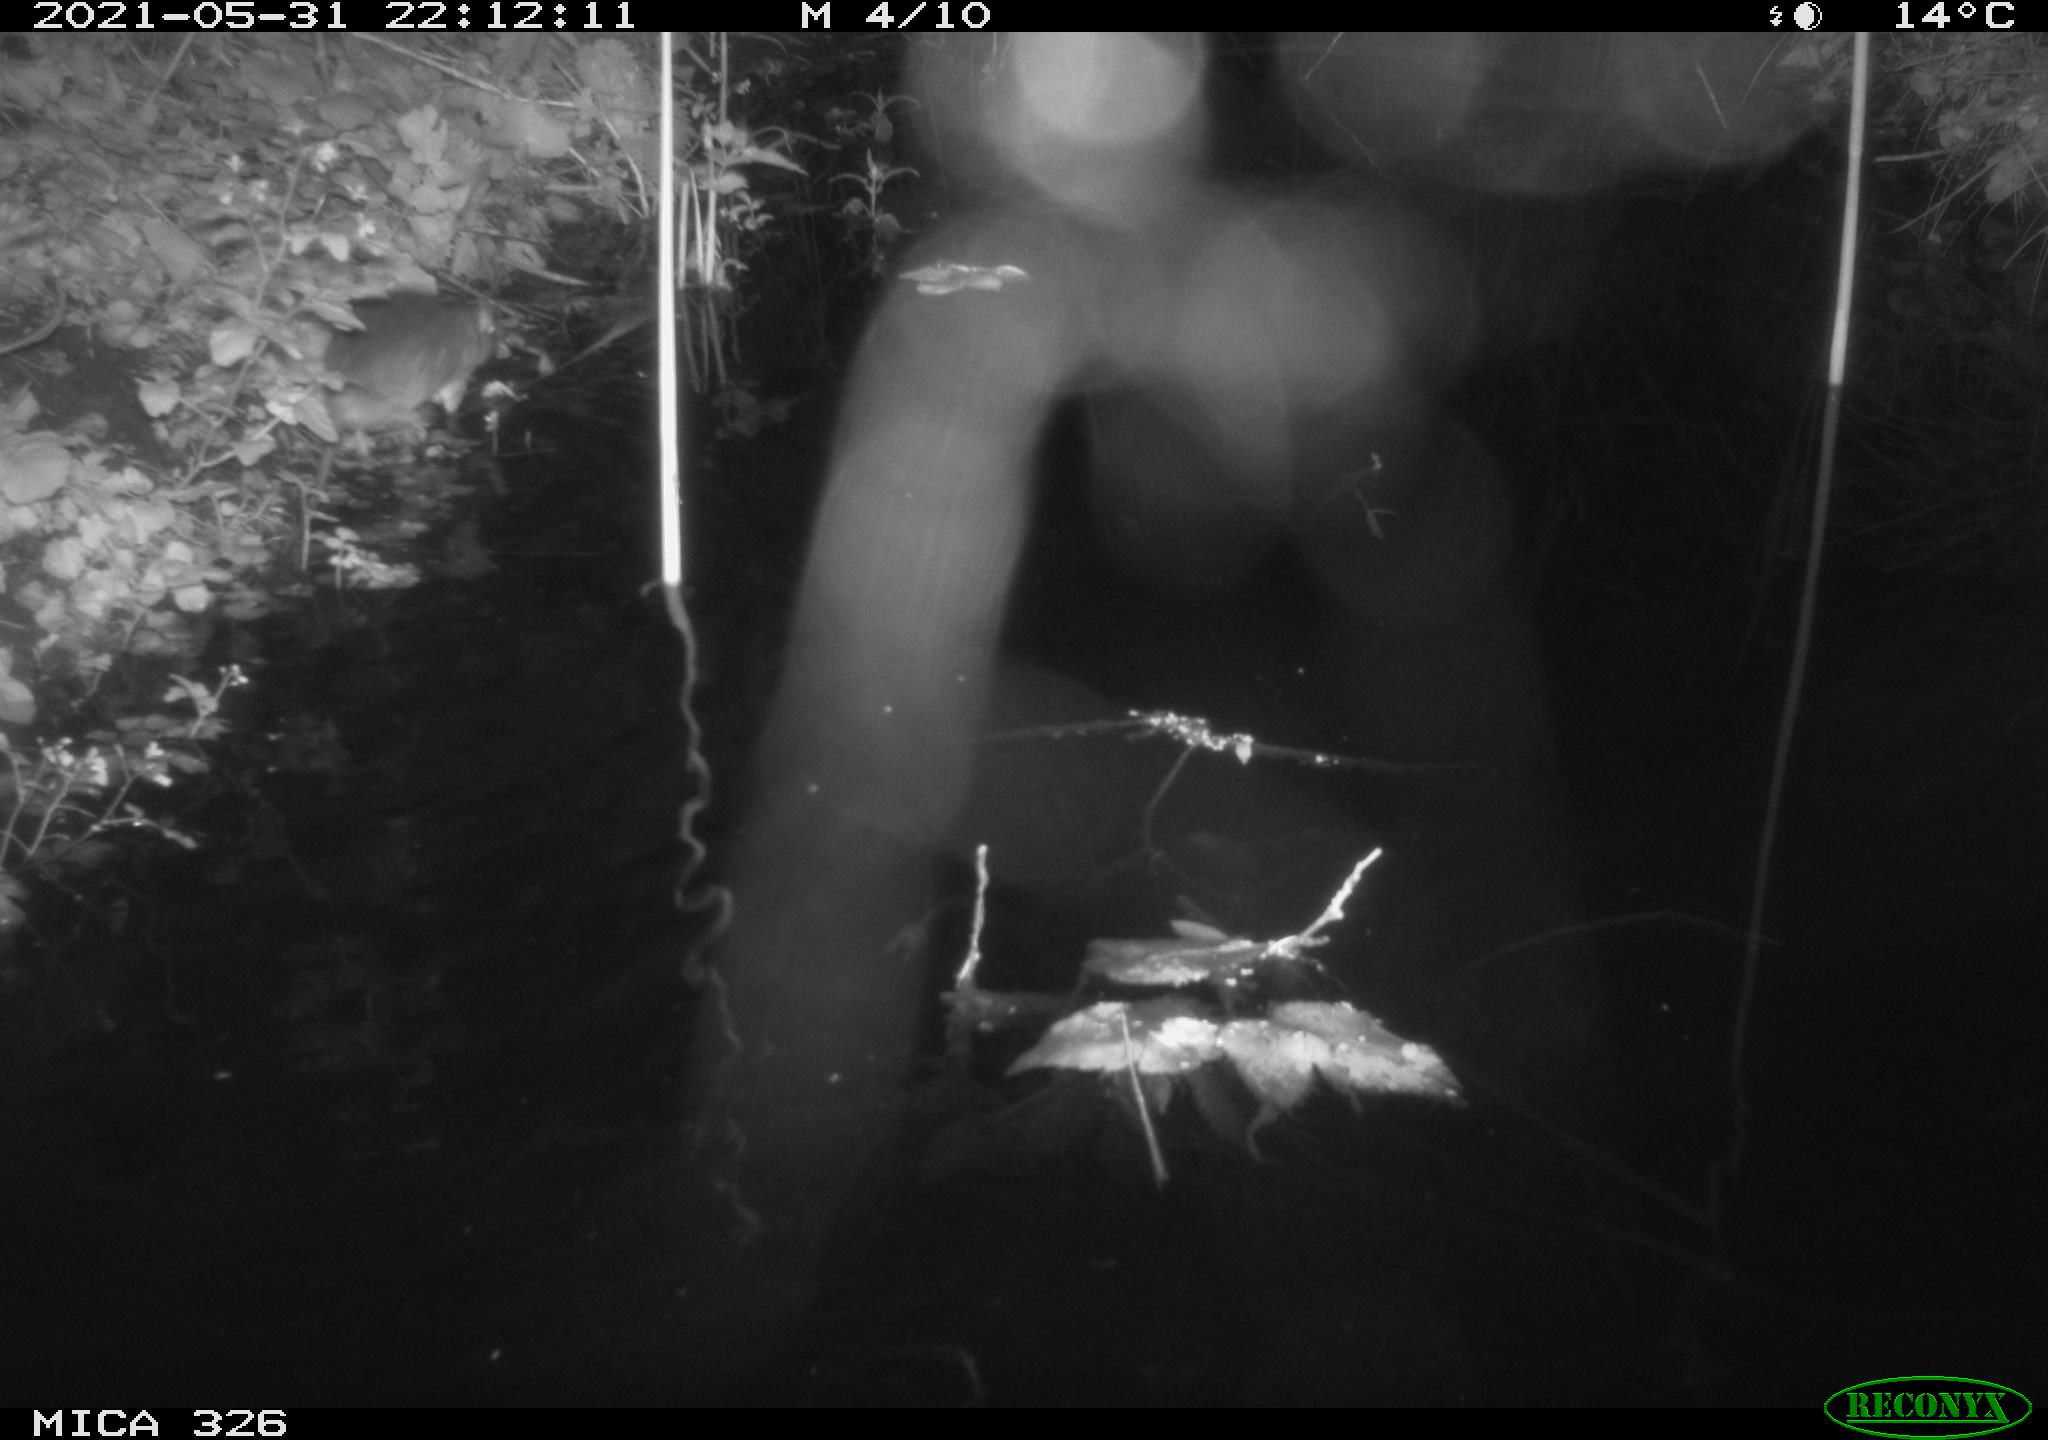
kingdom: Animalia
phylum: Chordata
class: Mammalia
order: Rodentia
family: Muridae
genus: Rattus
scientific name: Rattus norvegicus
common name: Brown rat
